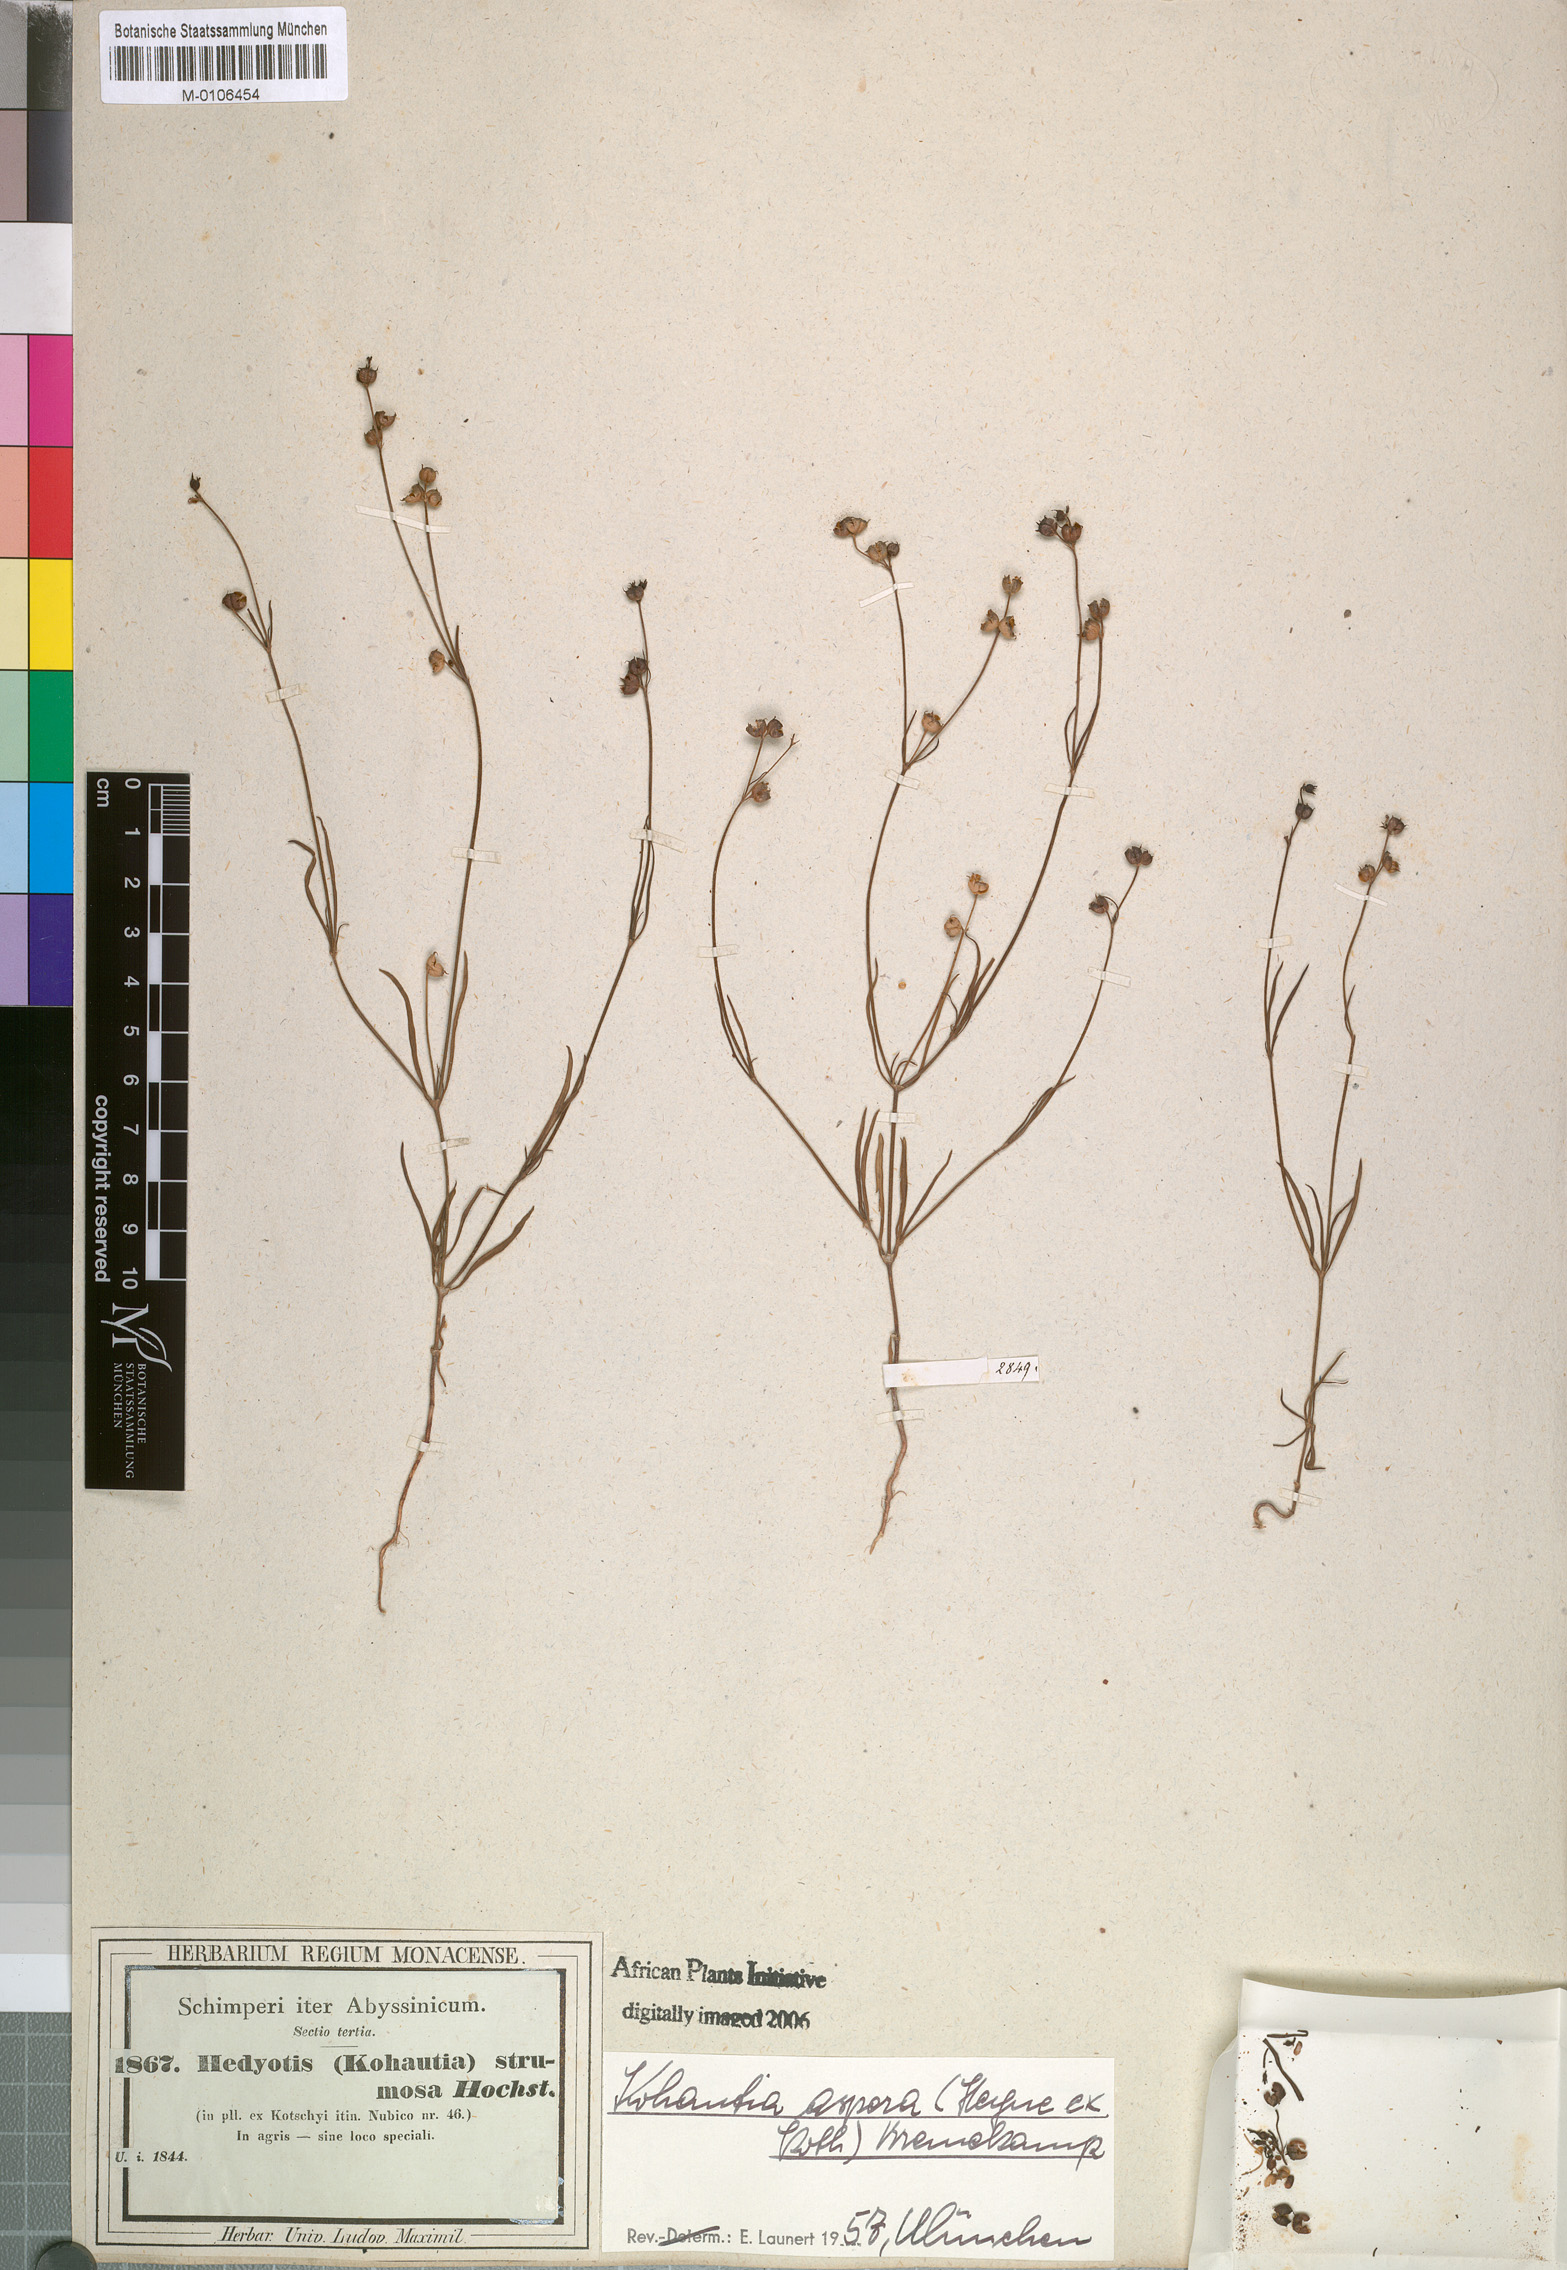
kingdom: Plantae
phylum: Tracheophyta
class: Magnoliopsida
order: Gentianales
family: Rubiaceae
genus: Kohautia
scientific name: Kohautia aspera
